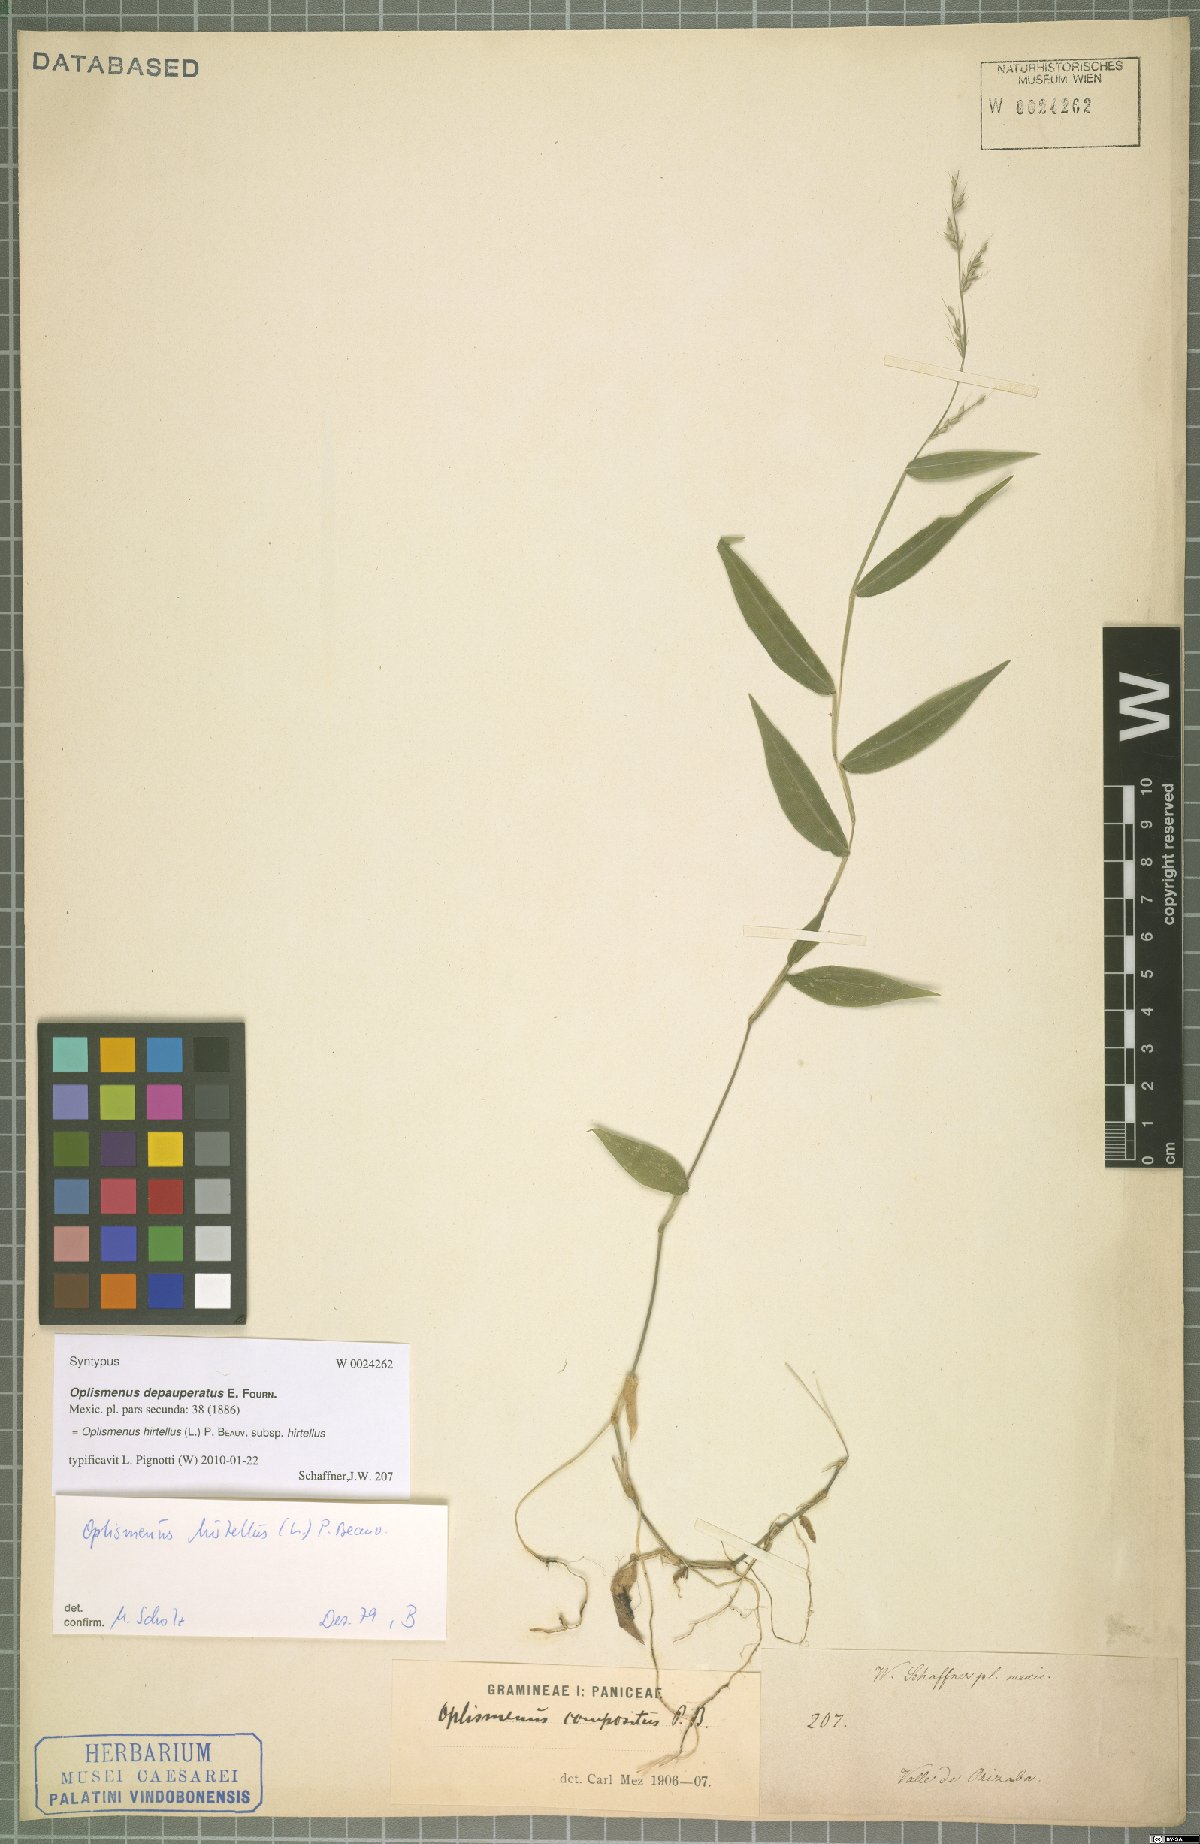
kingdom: Plantae
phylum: Tracheophyta
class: Liliopsida
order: Poales
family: Poaceae
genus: Oplismenus
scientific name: Oplismenus hirtellus
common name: Basketgrass
